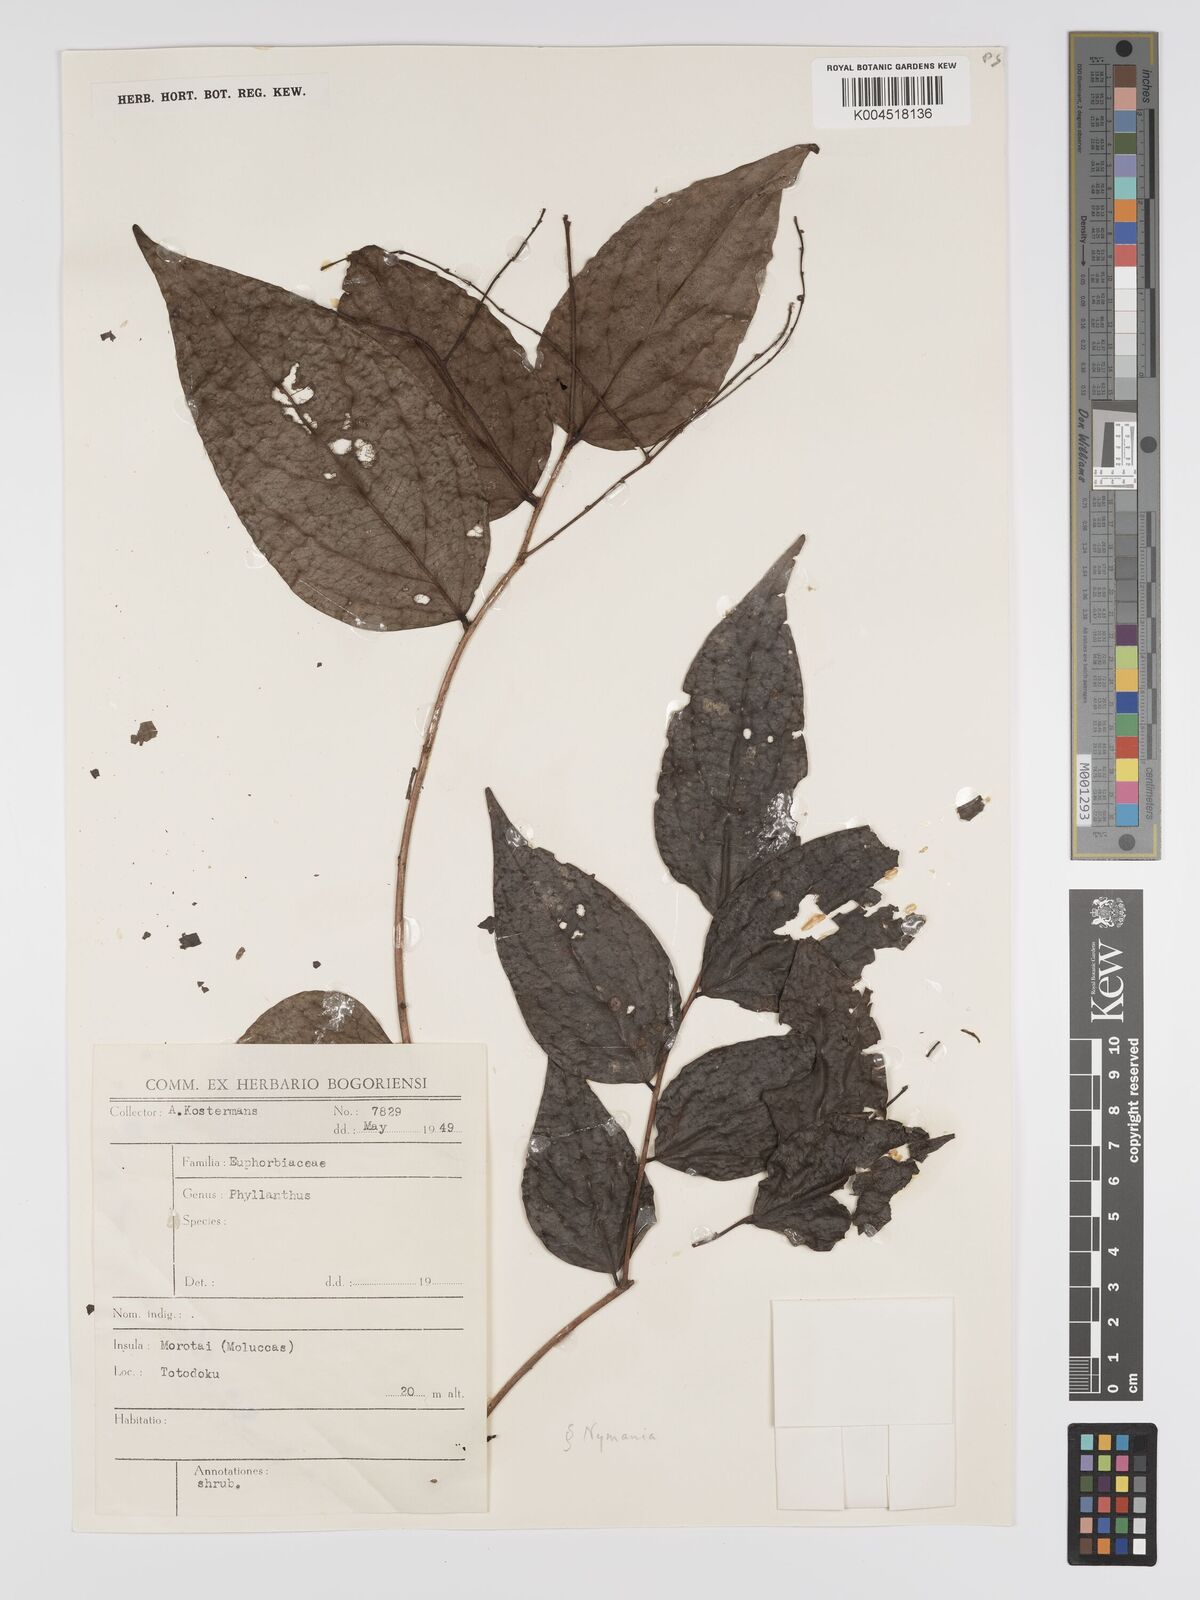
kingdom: Plantae
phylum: Tracheophyta
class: Magnoliopsida
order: Malpighiales
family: Phyllanthaceae
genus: Phyllanthus
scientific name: Phyllanthus
